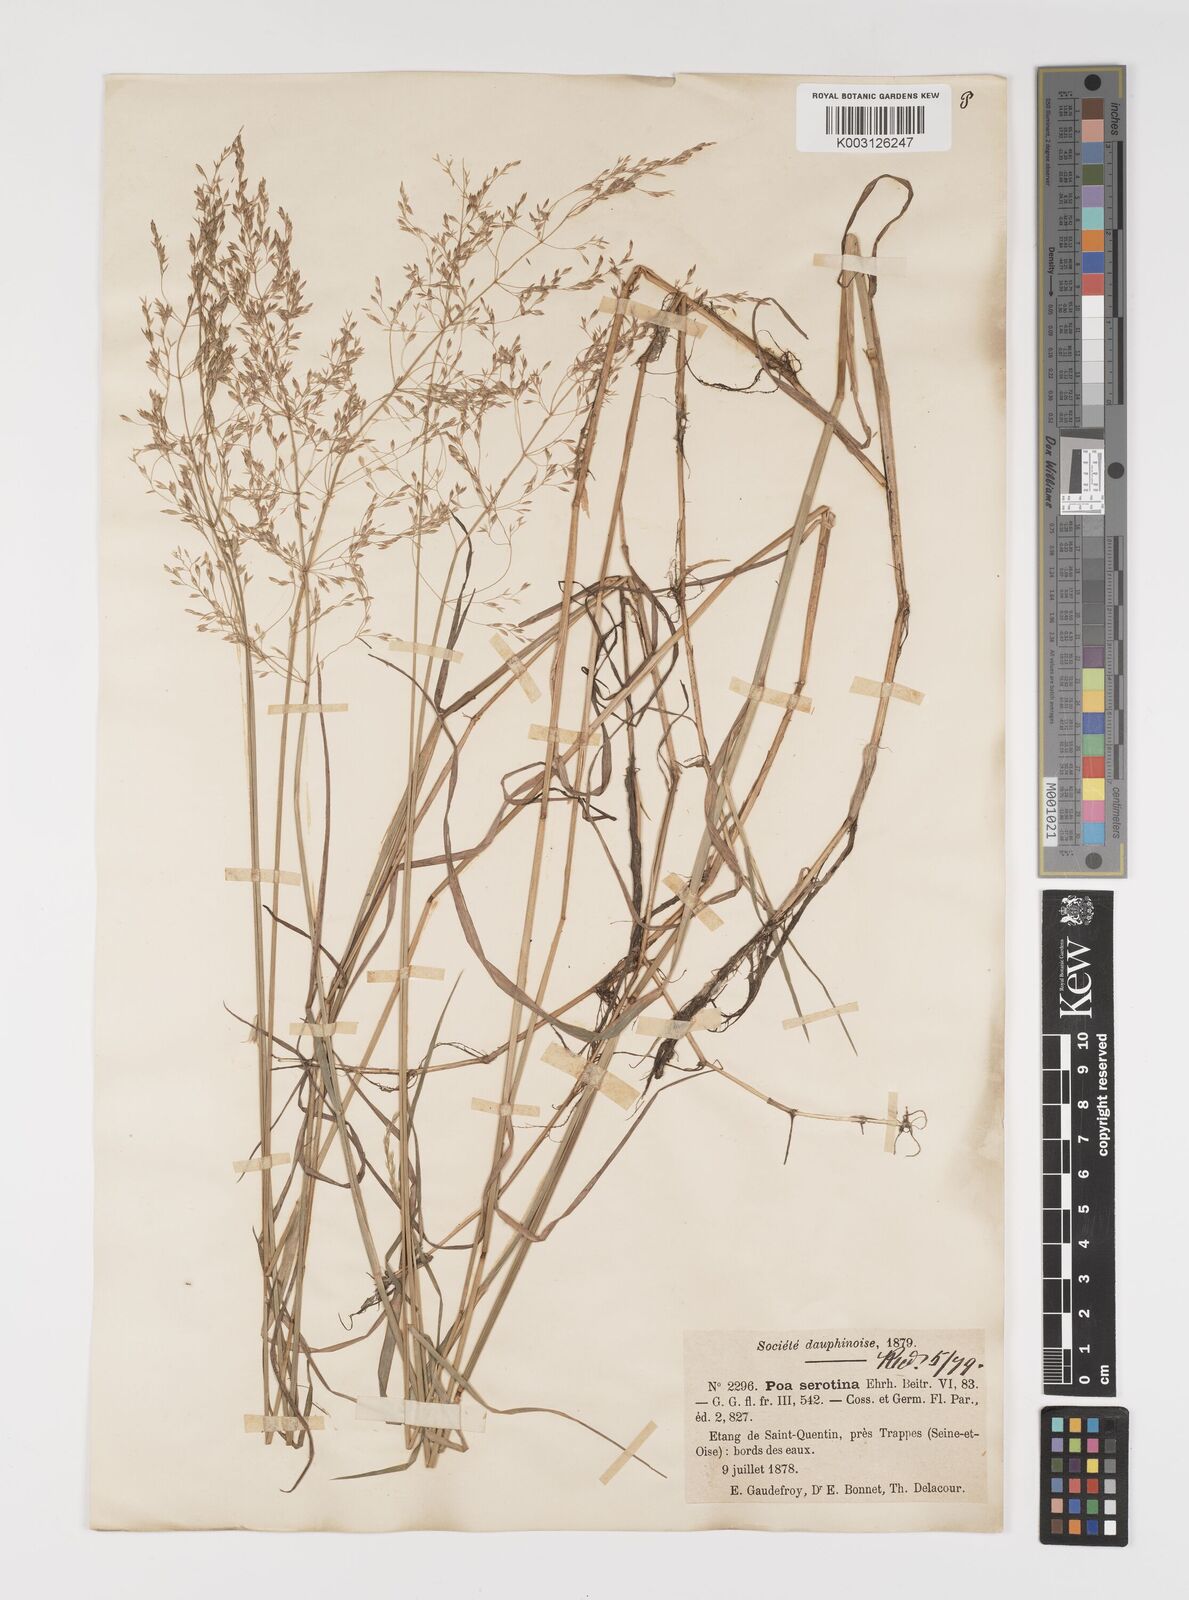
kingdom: Plantae
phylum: Tracheophyta
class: Liliopsida
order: Poales
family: Poaceae
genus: Poa
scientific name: Poa palustris
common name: Swamp meadow-grass
